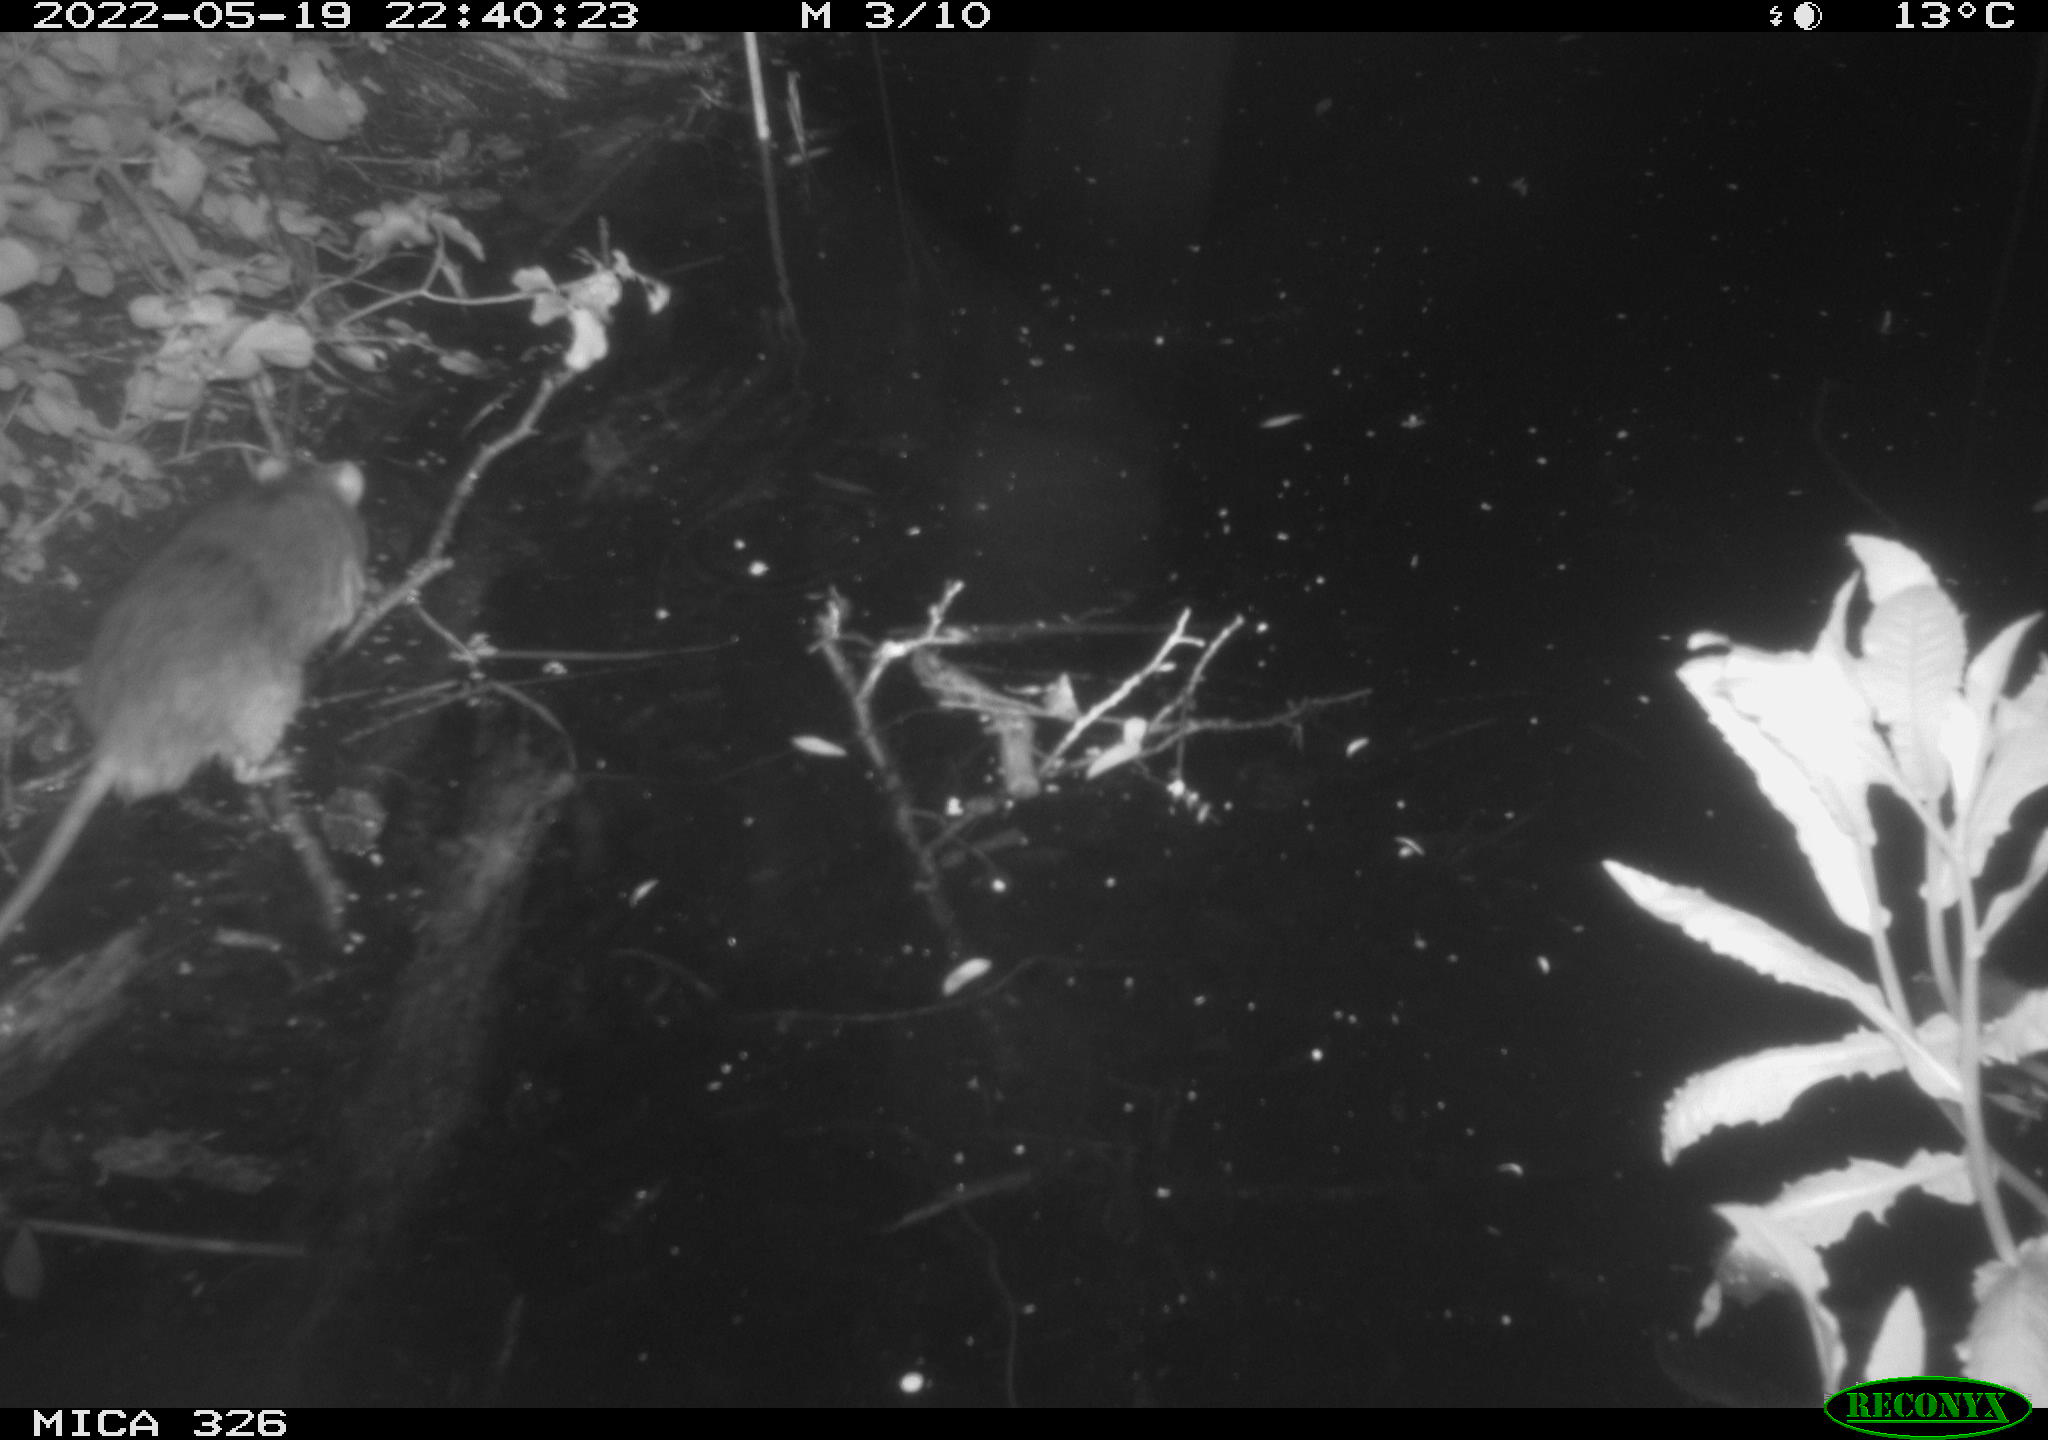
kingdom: Animalia
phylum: Chordata
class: Mammalia
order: Rodentia
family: Muridae
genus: Rattus
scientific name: Rattus norvegicus
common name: Brown rat
